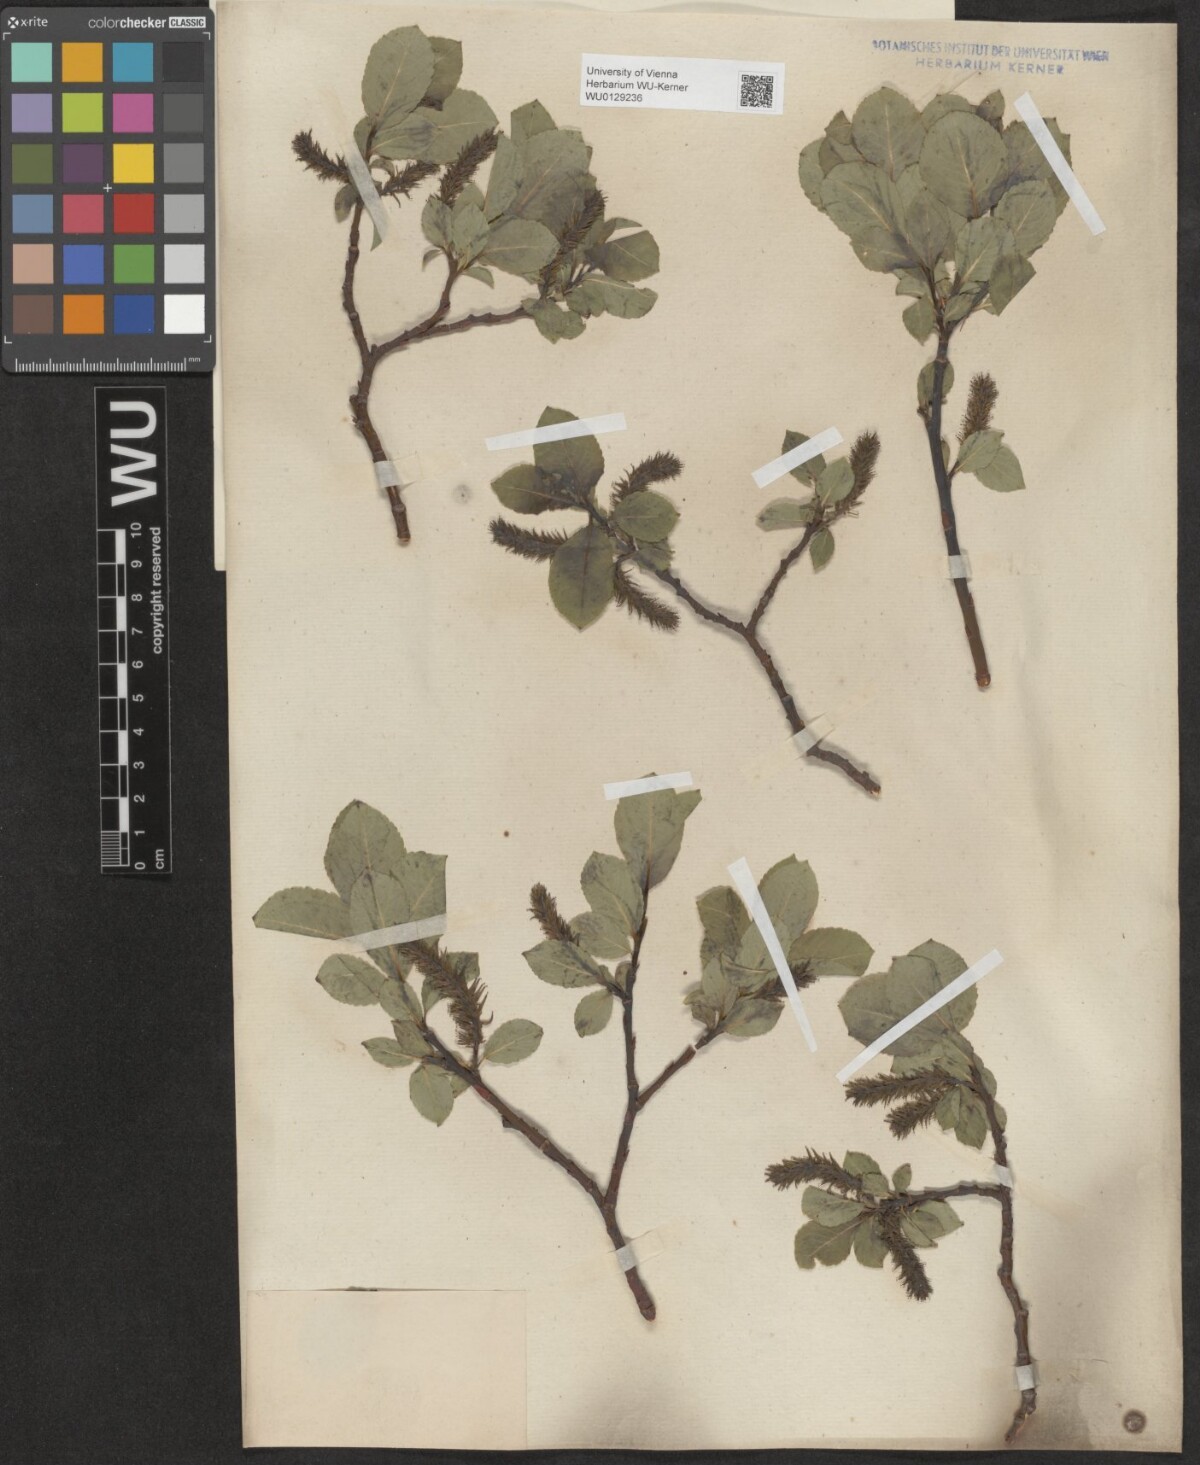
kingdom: Plantae
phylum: Tracheophyta
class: Magnoliopsida
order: Malpighiales
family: Salicaceae
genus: Salix
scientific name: Salix glabra
